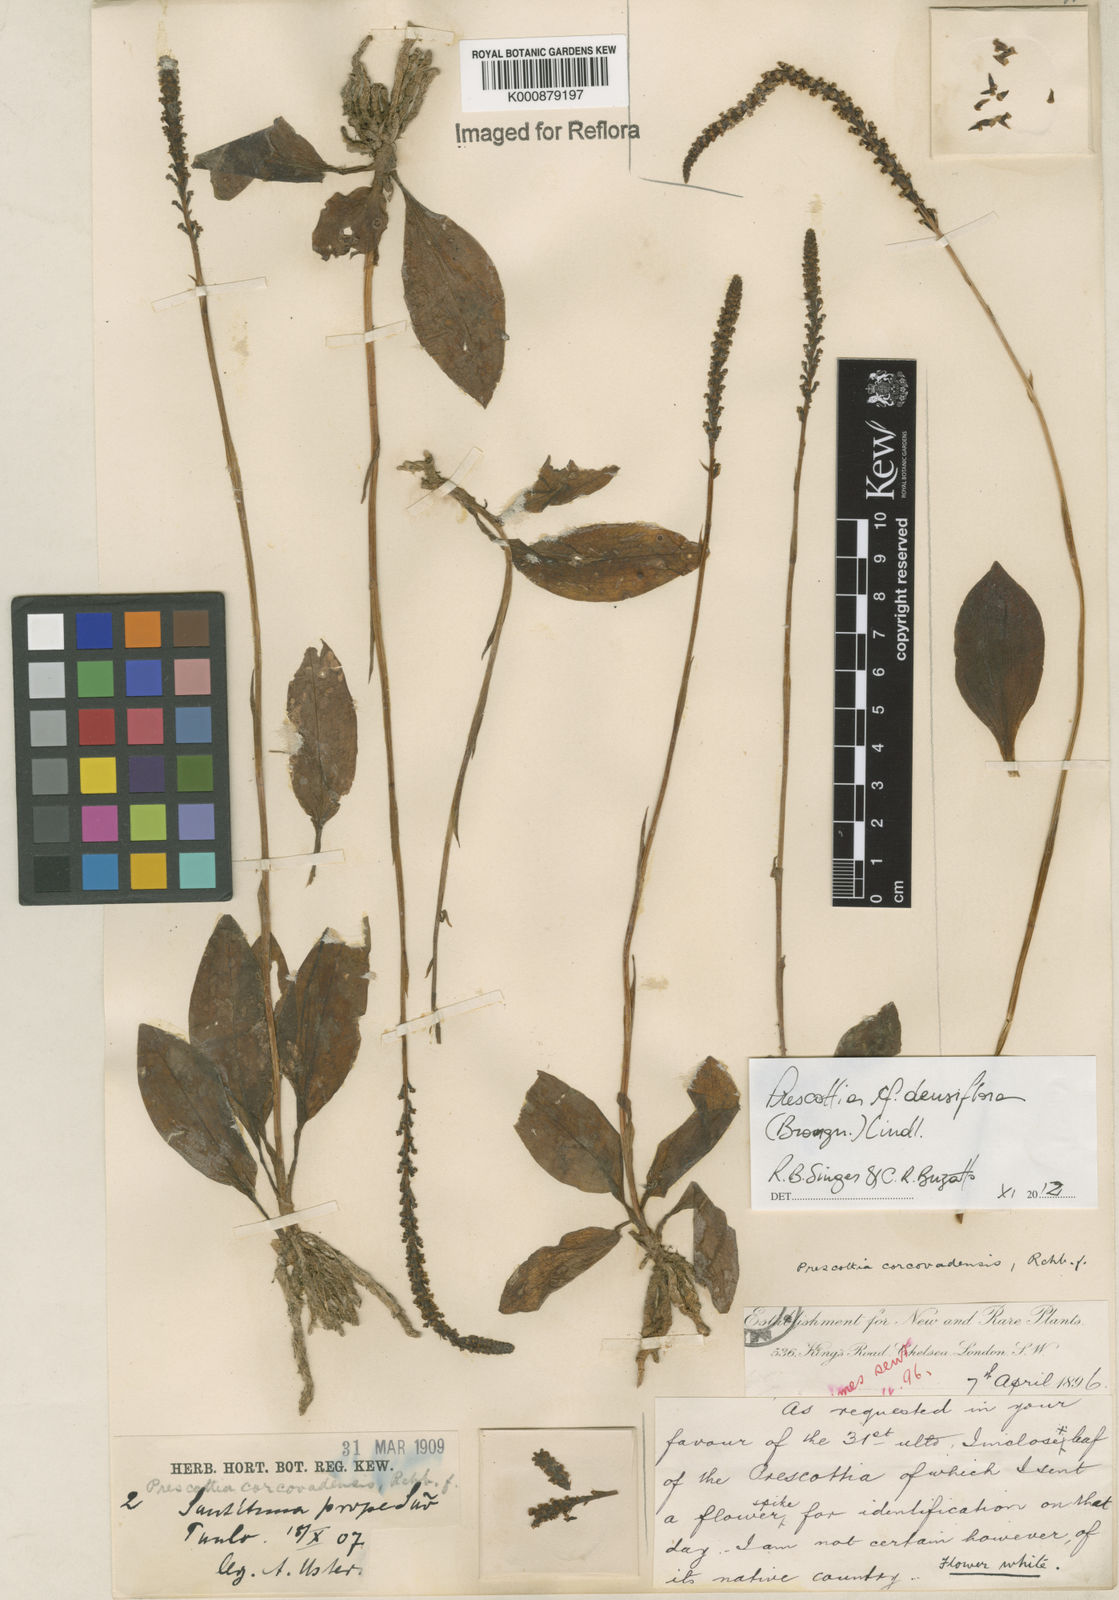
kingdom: Plantae
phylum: Tracheophyta
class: Liliopsida
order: Asparagales
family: Orchidaceae
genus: Prescottia
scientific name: Prescottia densiflora
